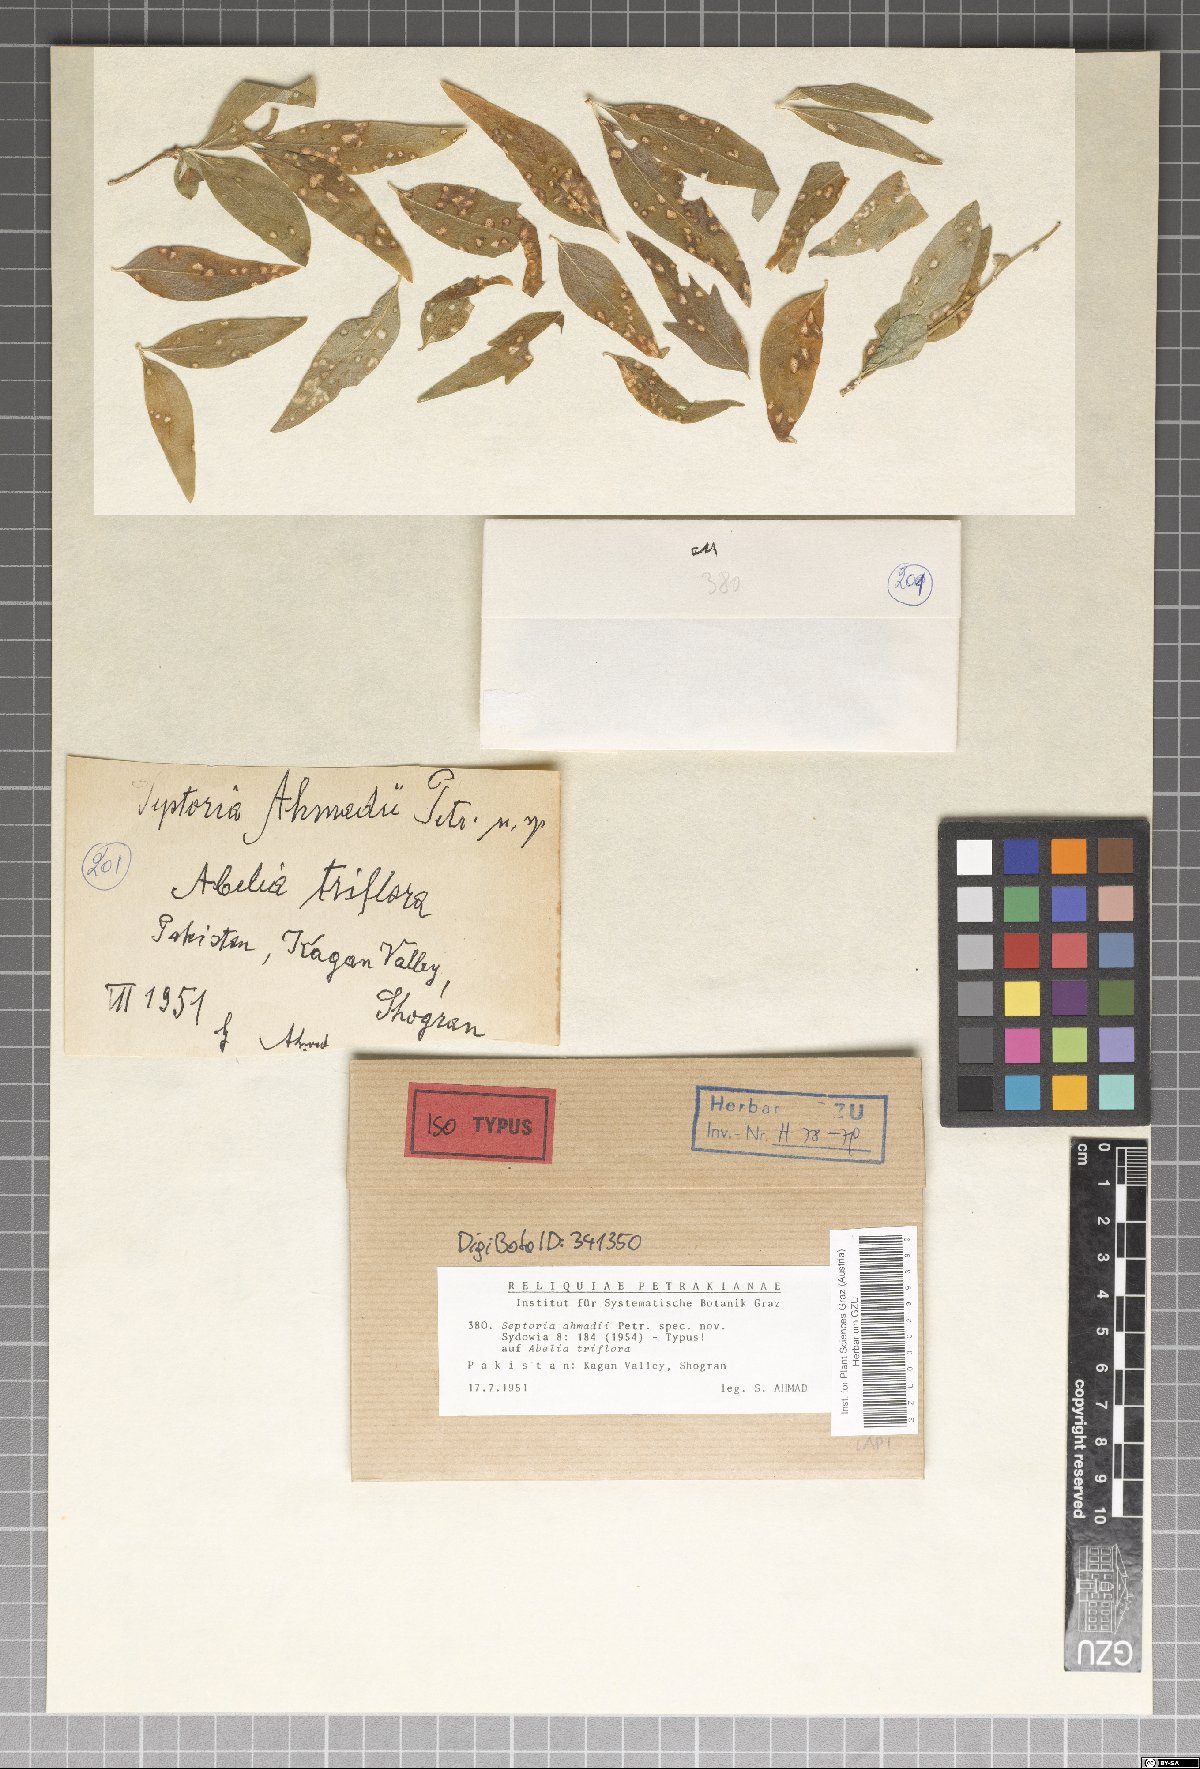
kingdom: Fungi
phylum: Ascomycota
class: Dothideomycetes
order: Mycosphaerellales
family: Mycosphaerellaceae
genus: Septoria
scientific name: Septoria ahmadii
